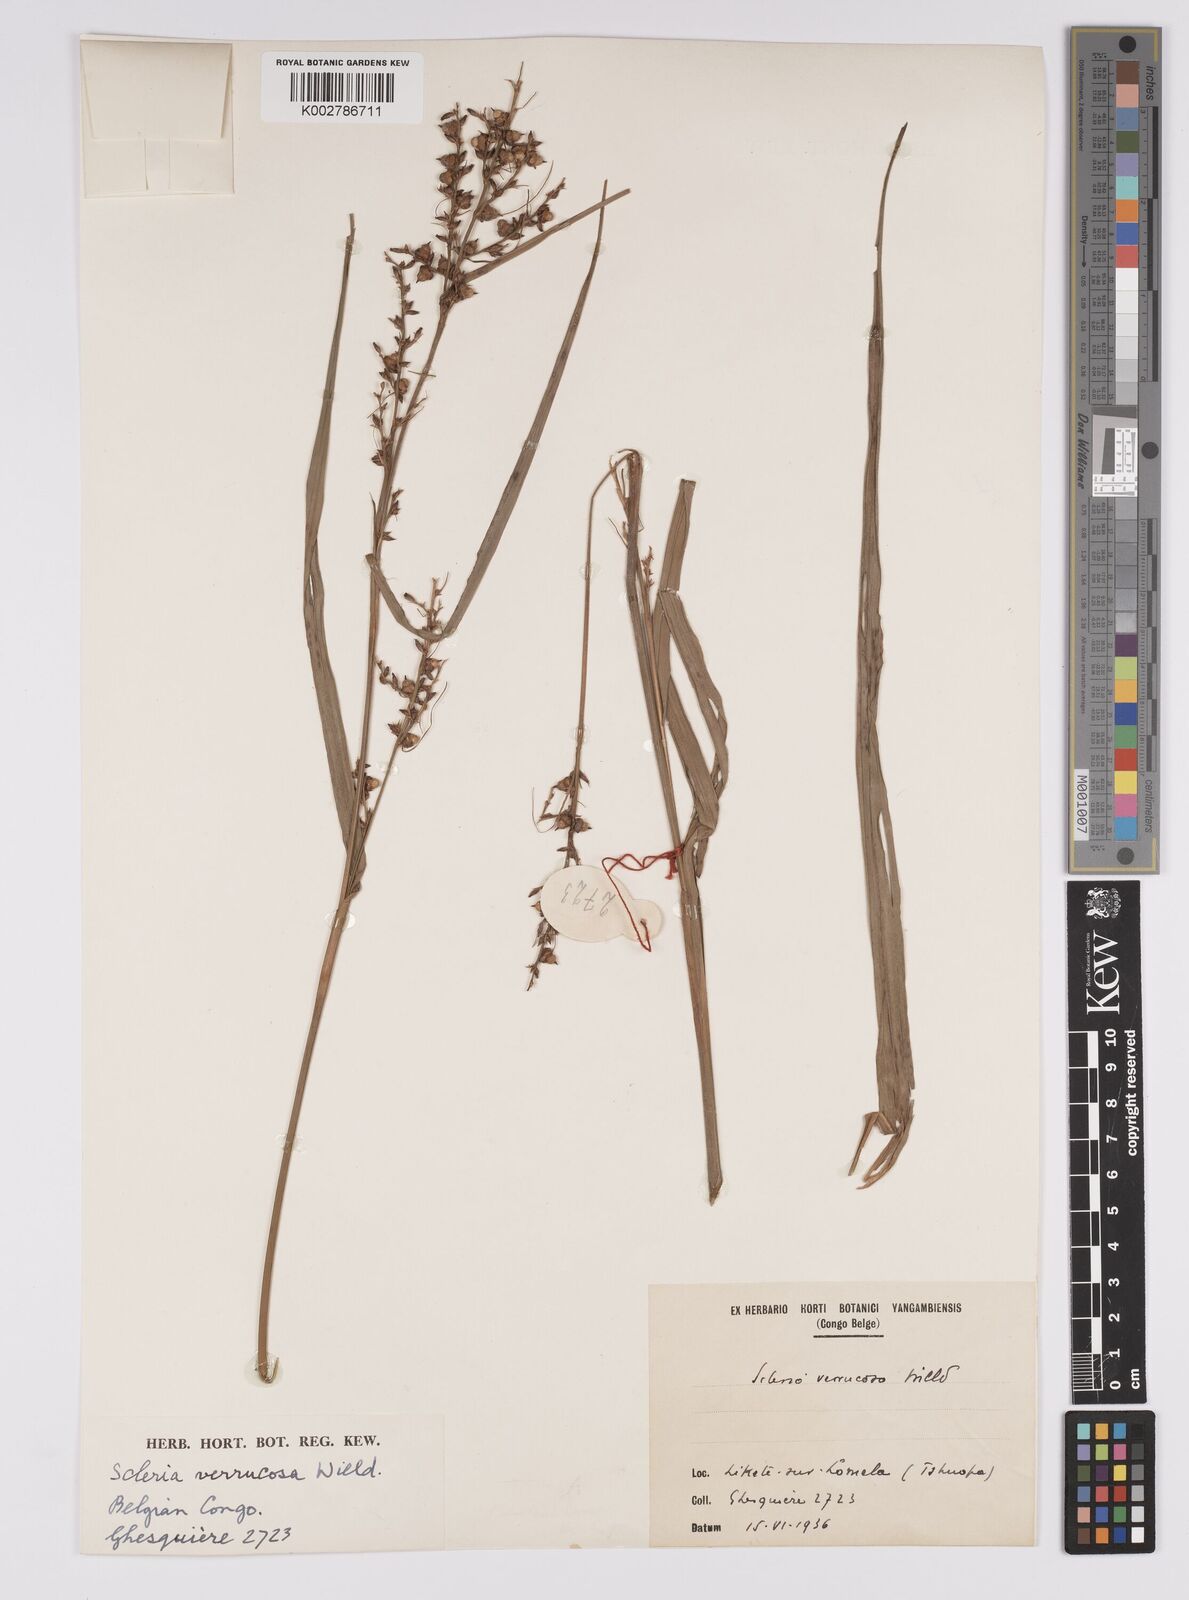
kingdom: Plantae
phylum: Tracheophyta
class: Liliopsida
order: Poales
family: Cyperaceae
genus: Scleria
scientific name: Scleria verrucosa
